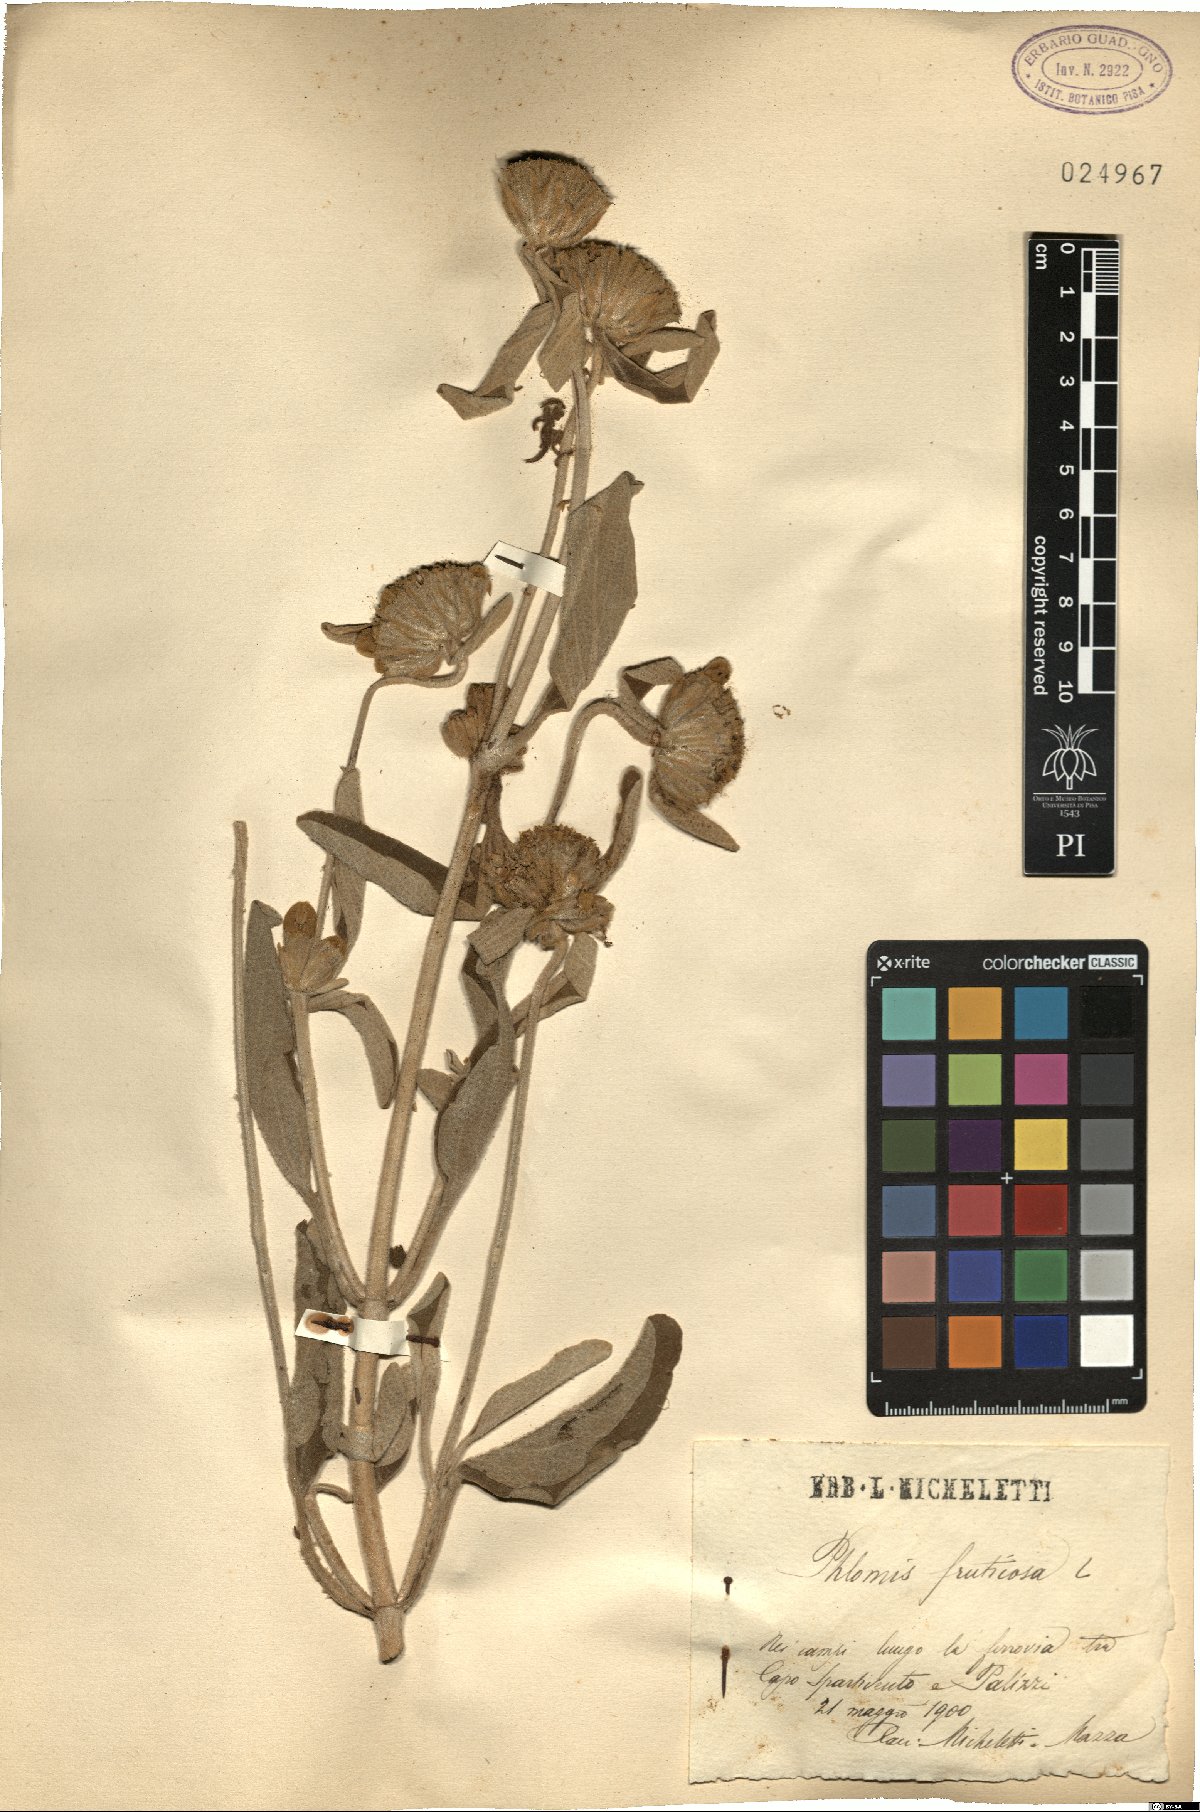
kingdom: Plantae
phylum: Tracheophyta
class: Magnoliopsida
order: Lamiales
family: Lamiaceae
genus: Phlomis
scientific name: Phlomis tenorei
